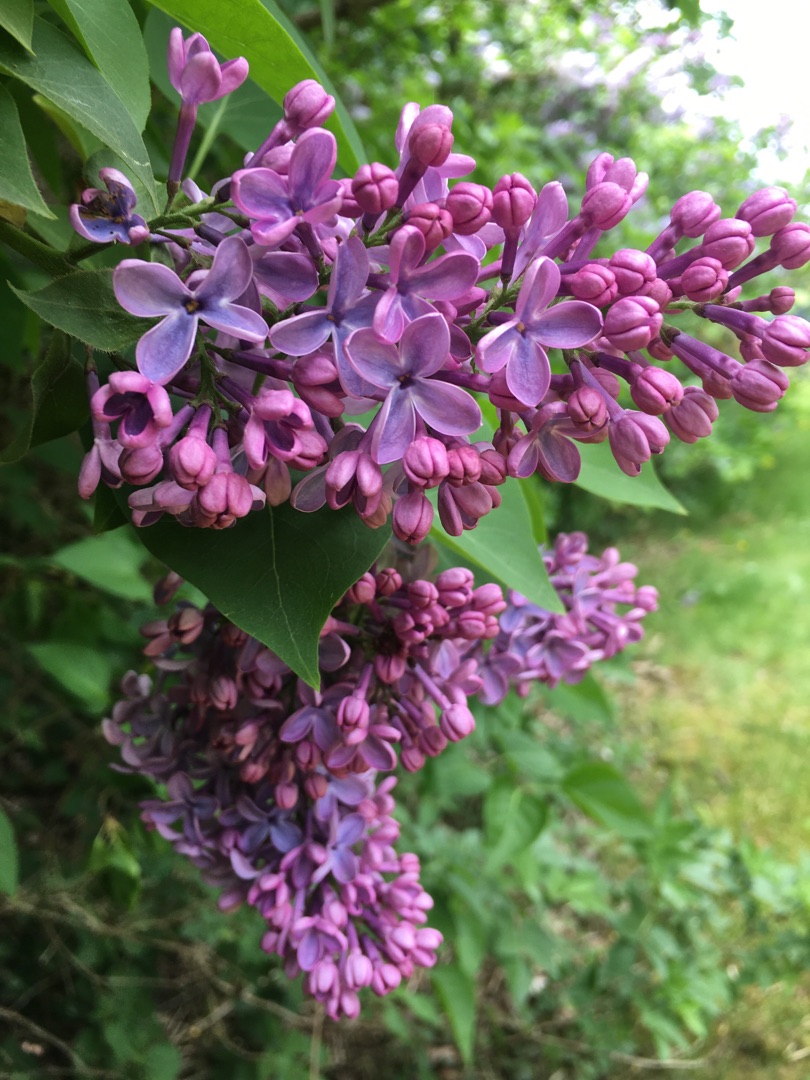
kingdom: Plantae
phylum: Tracheophyta
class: Magnoliopsida
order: Lamiales
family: Oleaceae
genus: Syringa
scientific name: Syringa vulgaris
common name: Syren
